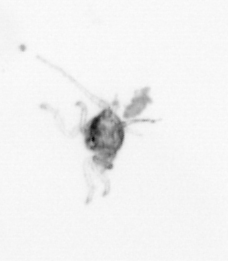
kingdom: Animalia
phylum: Arthropoda
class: Copepoda
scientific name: Copepoda
